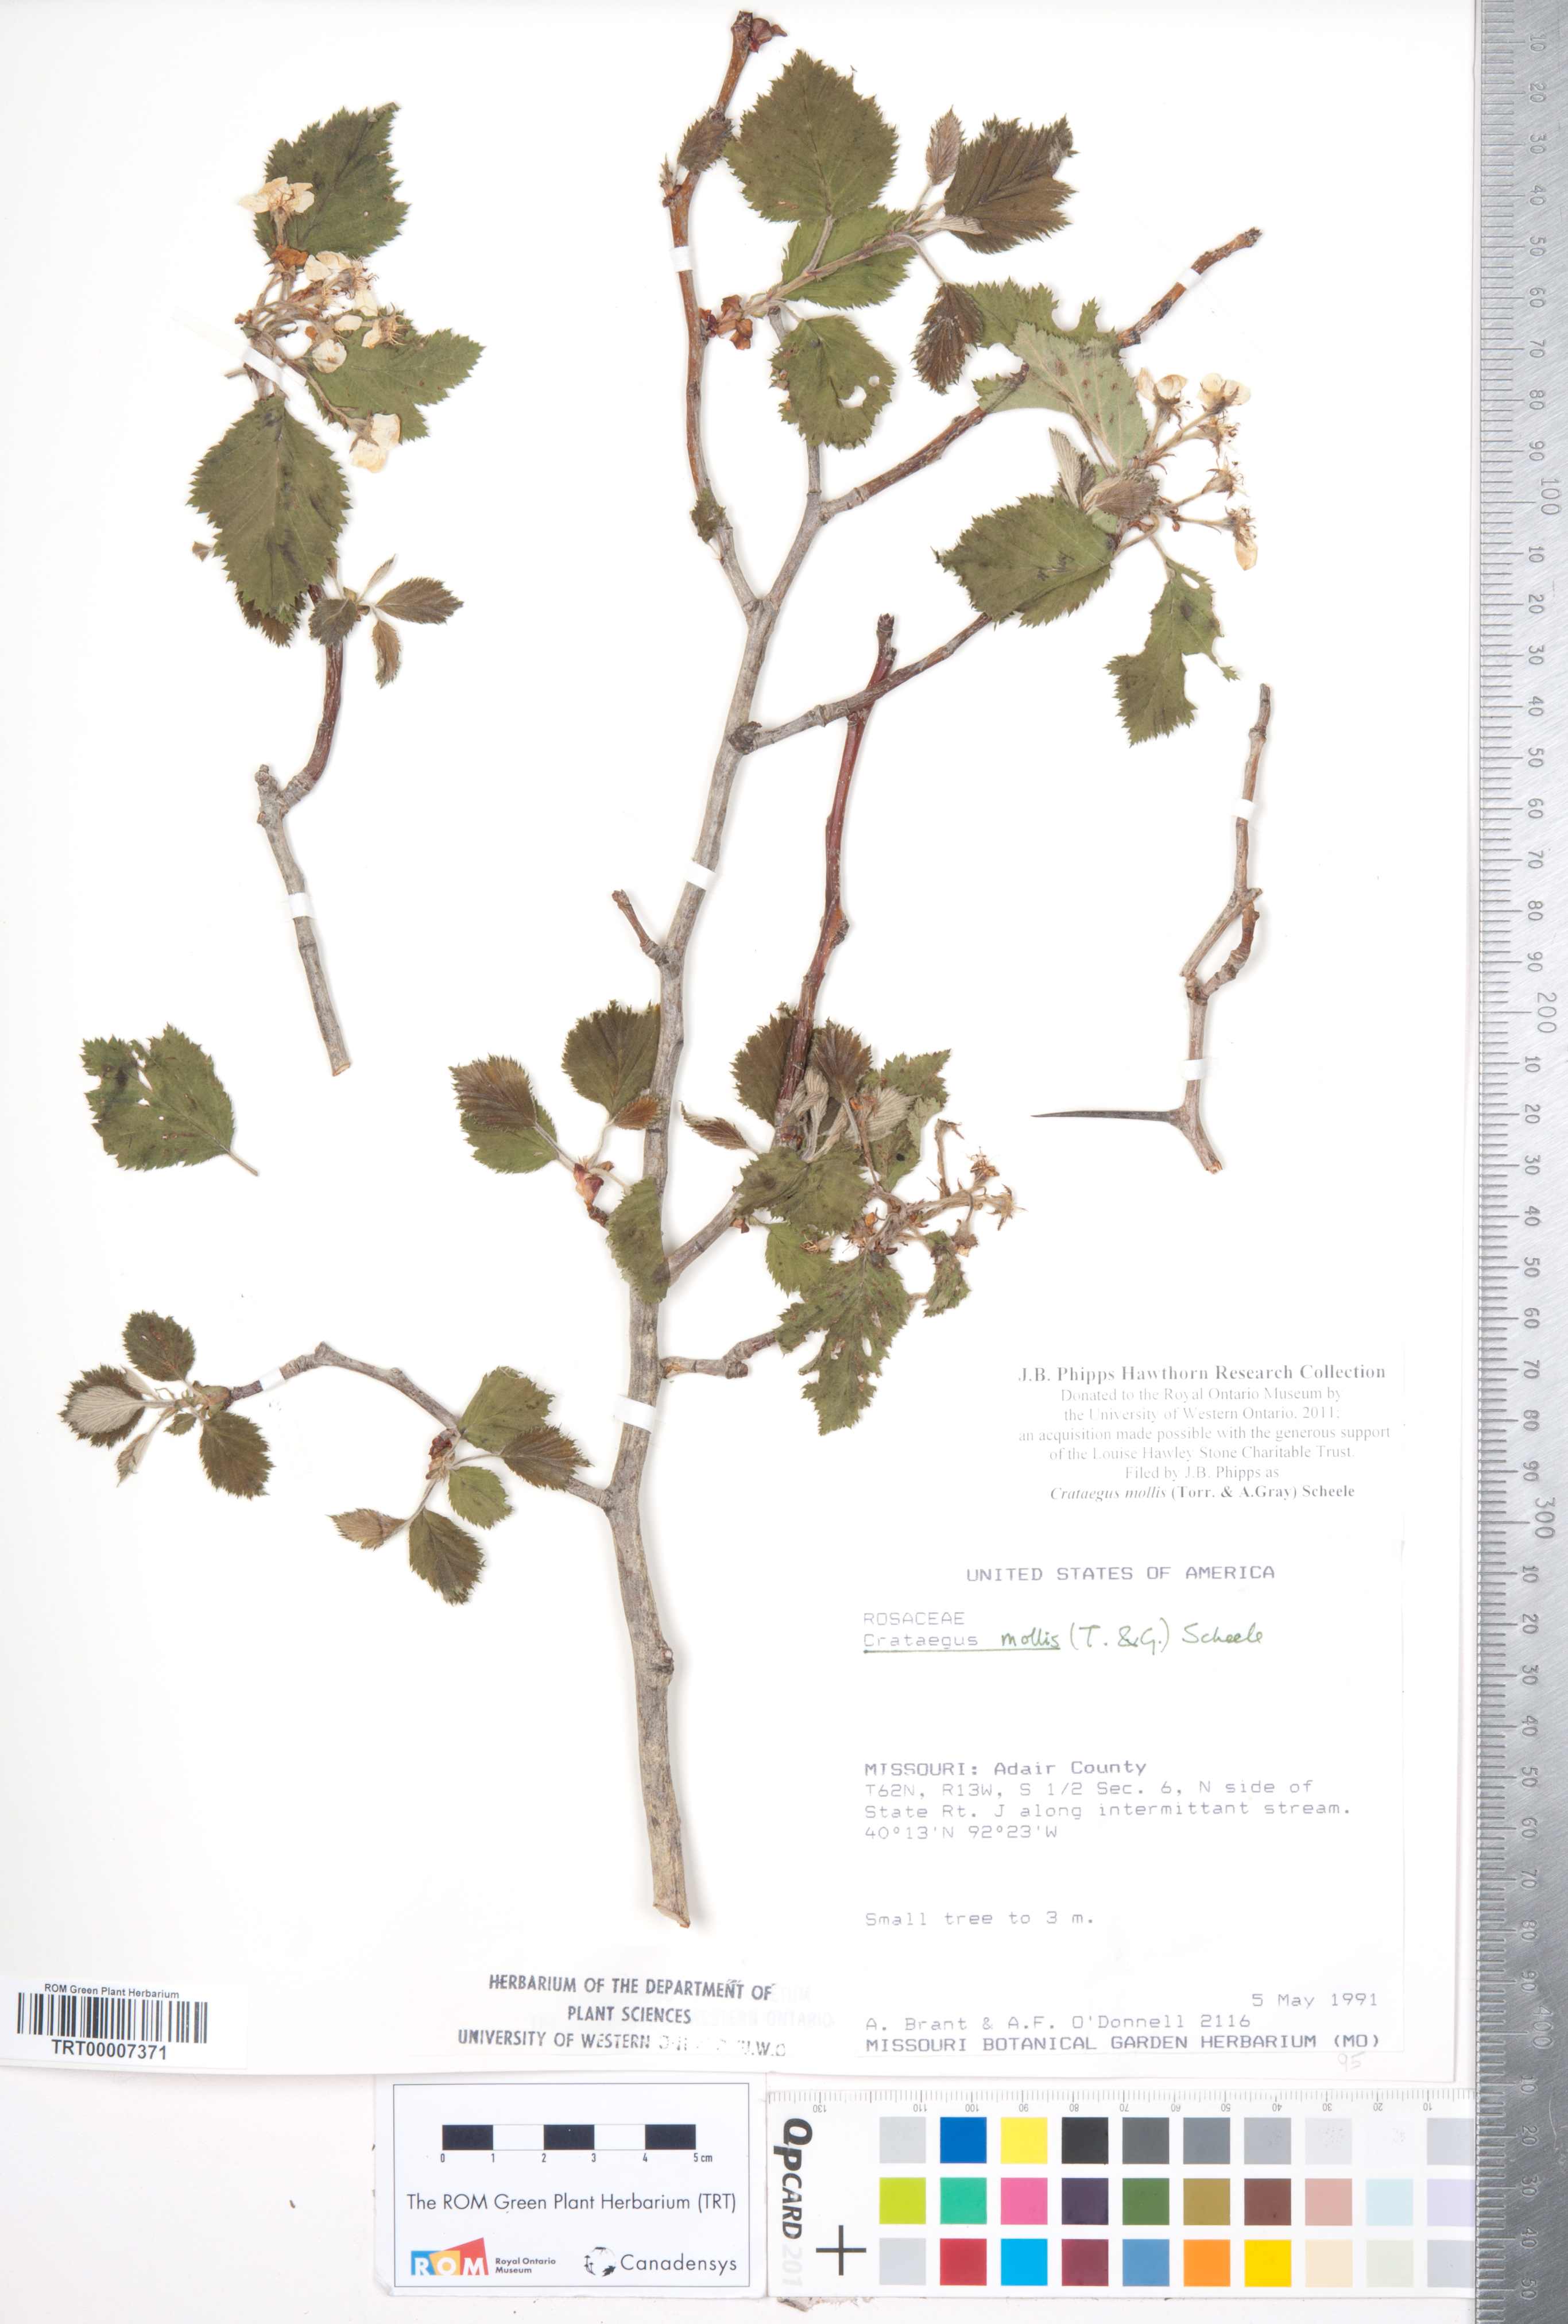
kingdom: Plantae
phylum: Tracheophyta
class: Magnoliopsida
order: Rosales
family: Rosaceae
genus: Crataegus
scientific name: Crataegus mollis
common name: Downy hawthorn
